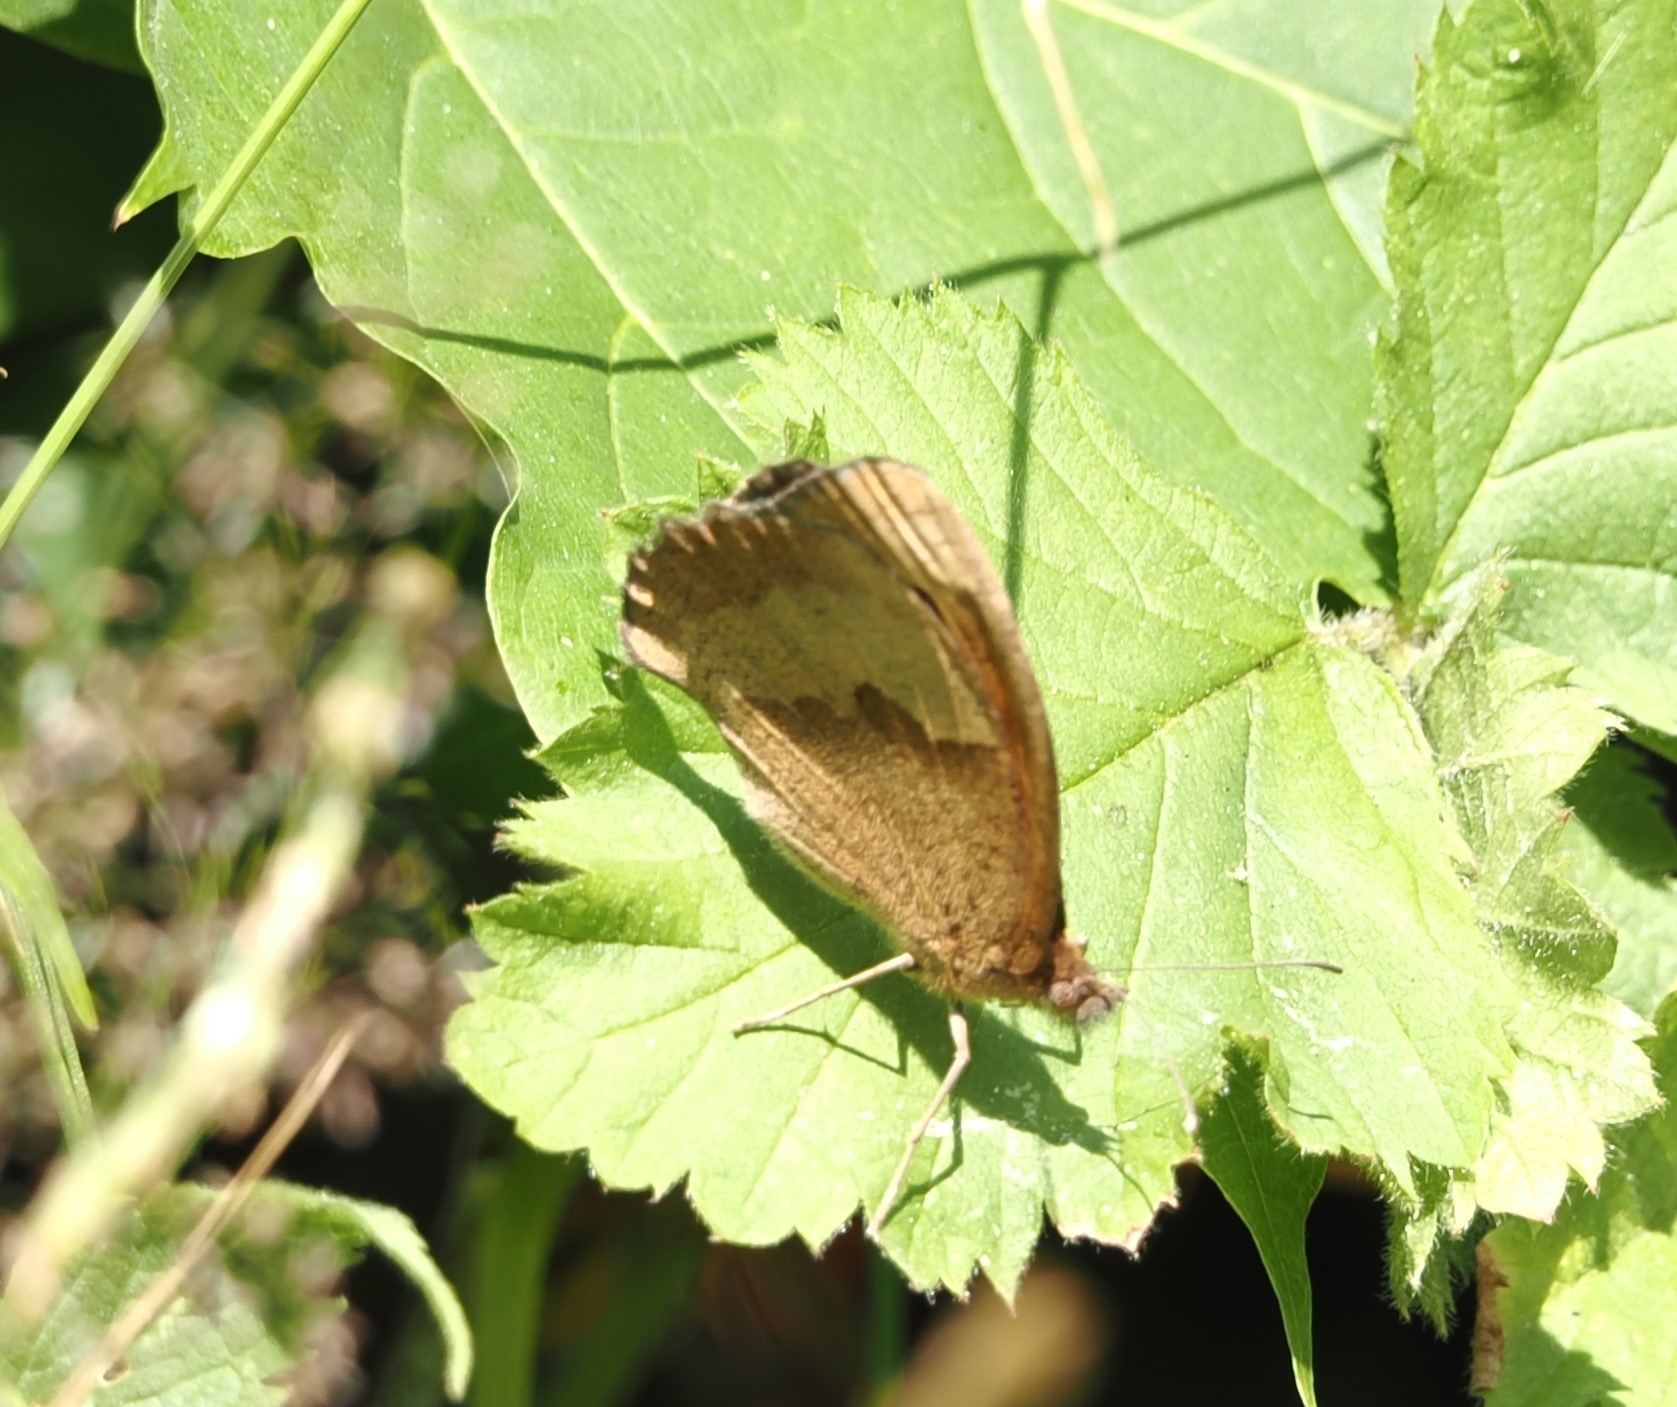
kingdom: Animalia
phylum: Arthropoda
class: Insecta
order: Lepidoptera
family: Nymphalidae
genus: Maniola
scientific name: Maniola jurtina
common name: Græsrandøje
